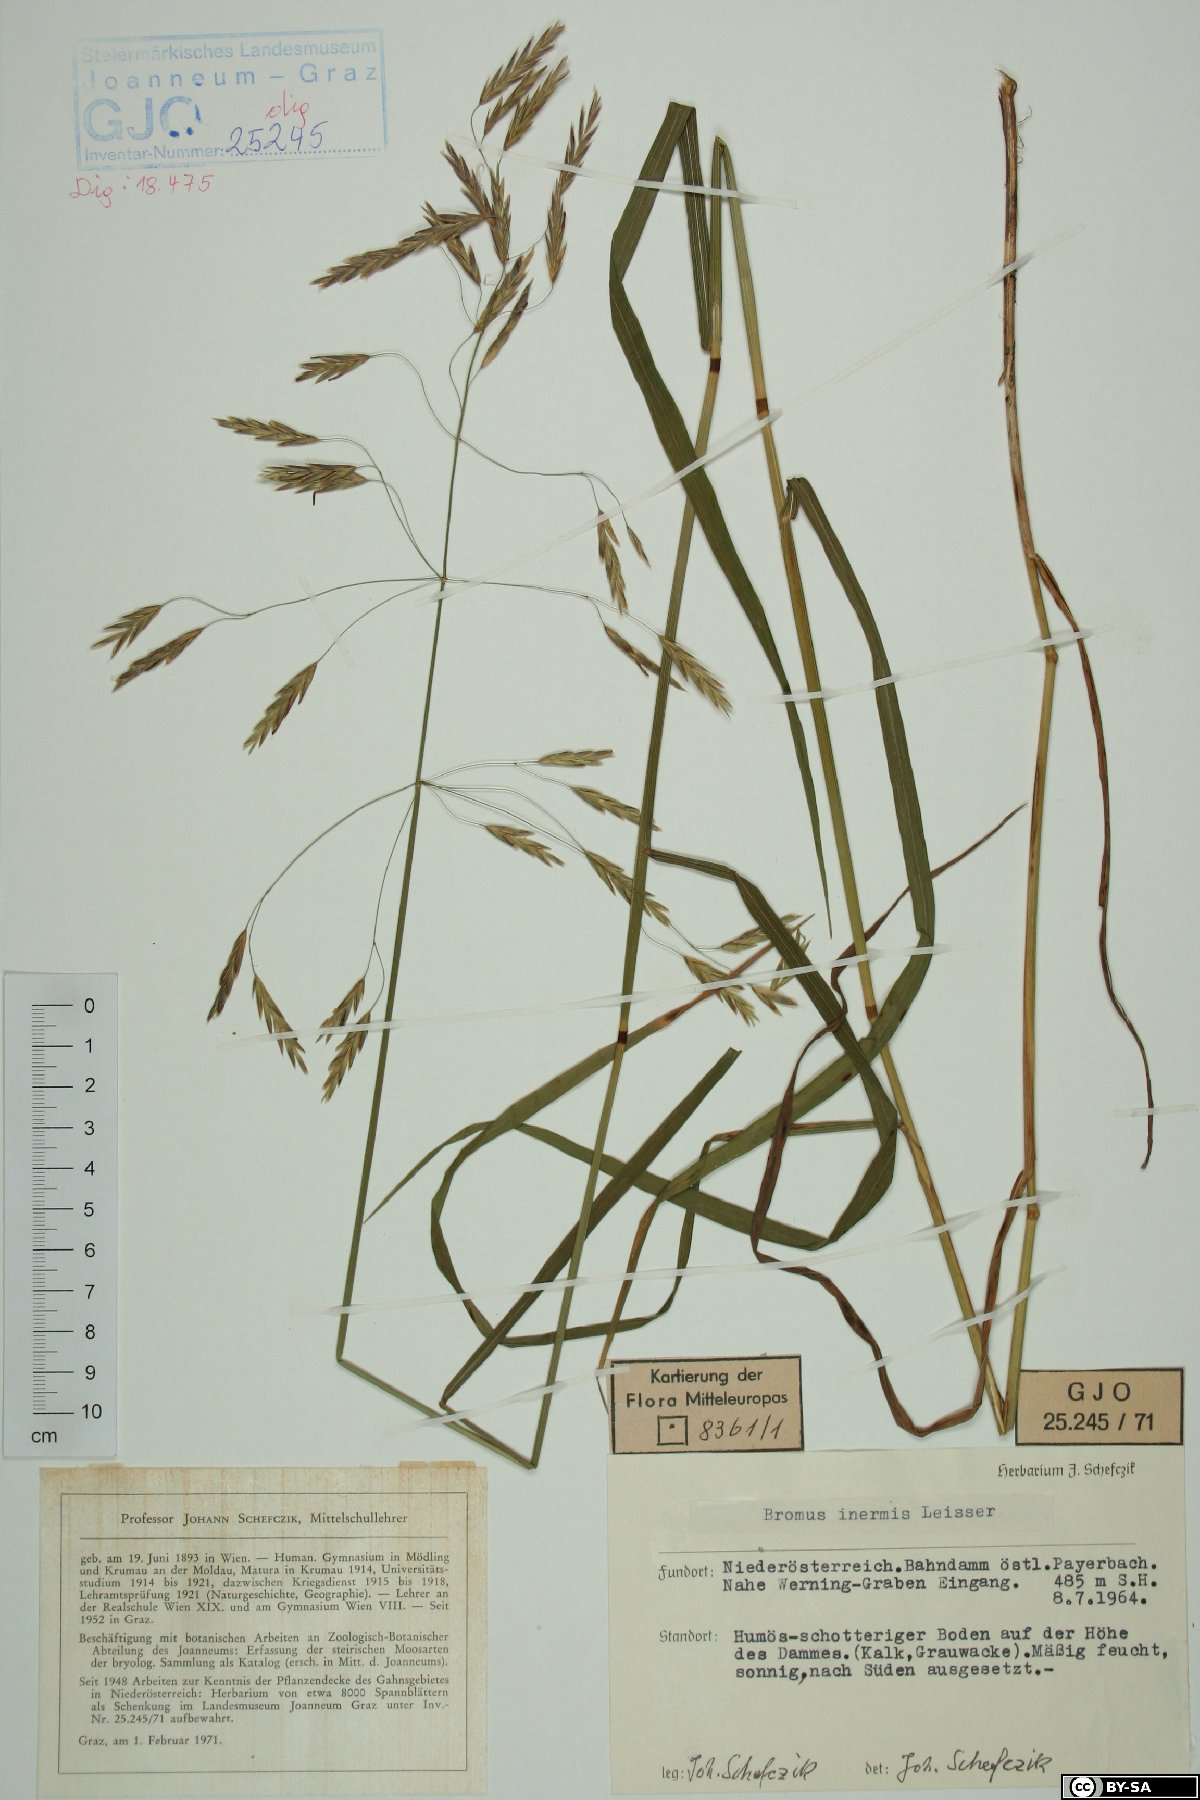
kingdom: Plantae
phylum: Tracheophyta
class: Liliopsida
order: Poales
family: Poaceae
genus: Bromus
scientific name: Bromus inermis
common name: Smooth brome
